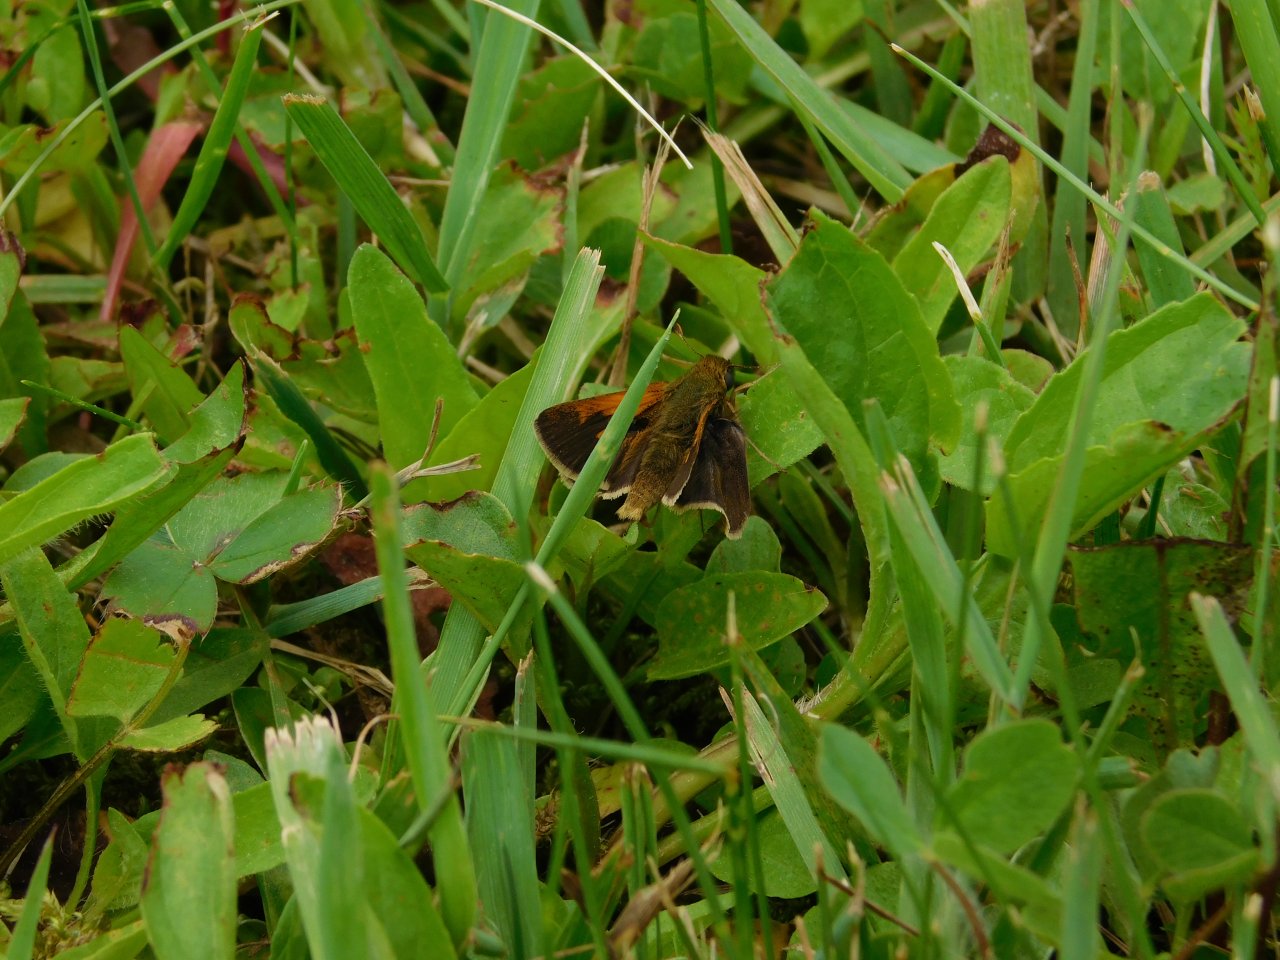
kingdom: Animalia
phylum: Arthropoda
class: Insecta
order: Lepidoptera
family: Hesperiidae
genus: Polites
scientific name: Polites themistocles
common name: Tawny-edged Skipper
